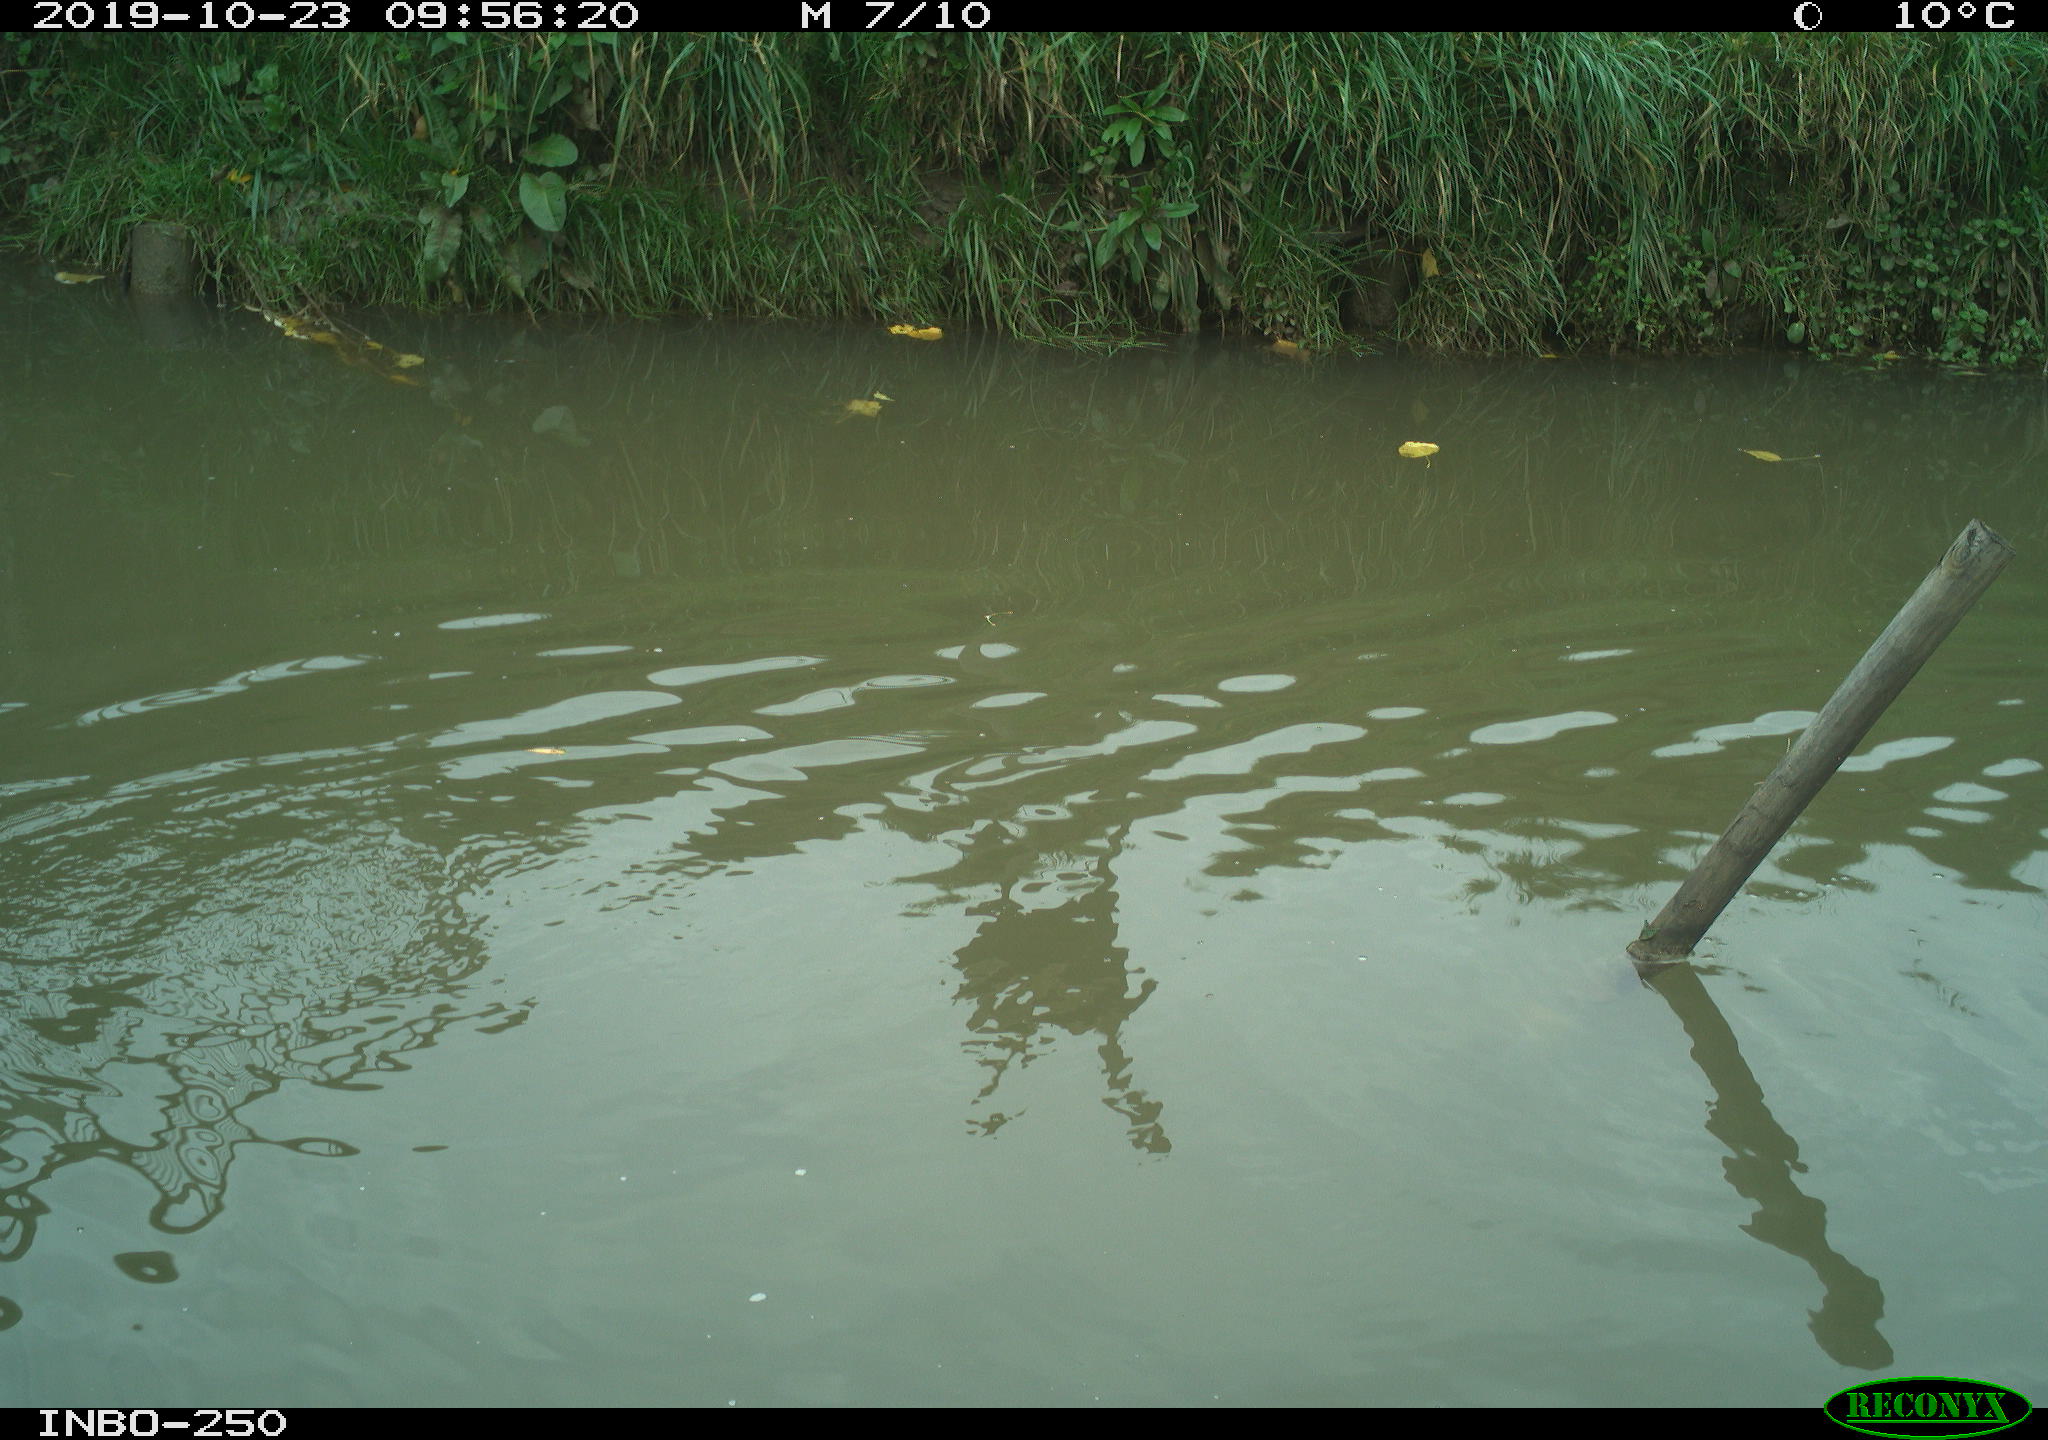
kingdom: Animalia
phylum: Chordata
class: Aves
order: Anseriformes
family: Anatidae
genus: Anas
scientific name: Anas platyrhynchos
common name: Mallard
